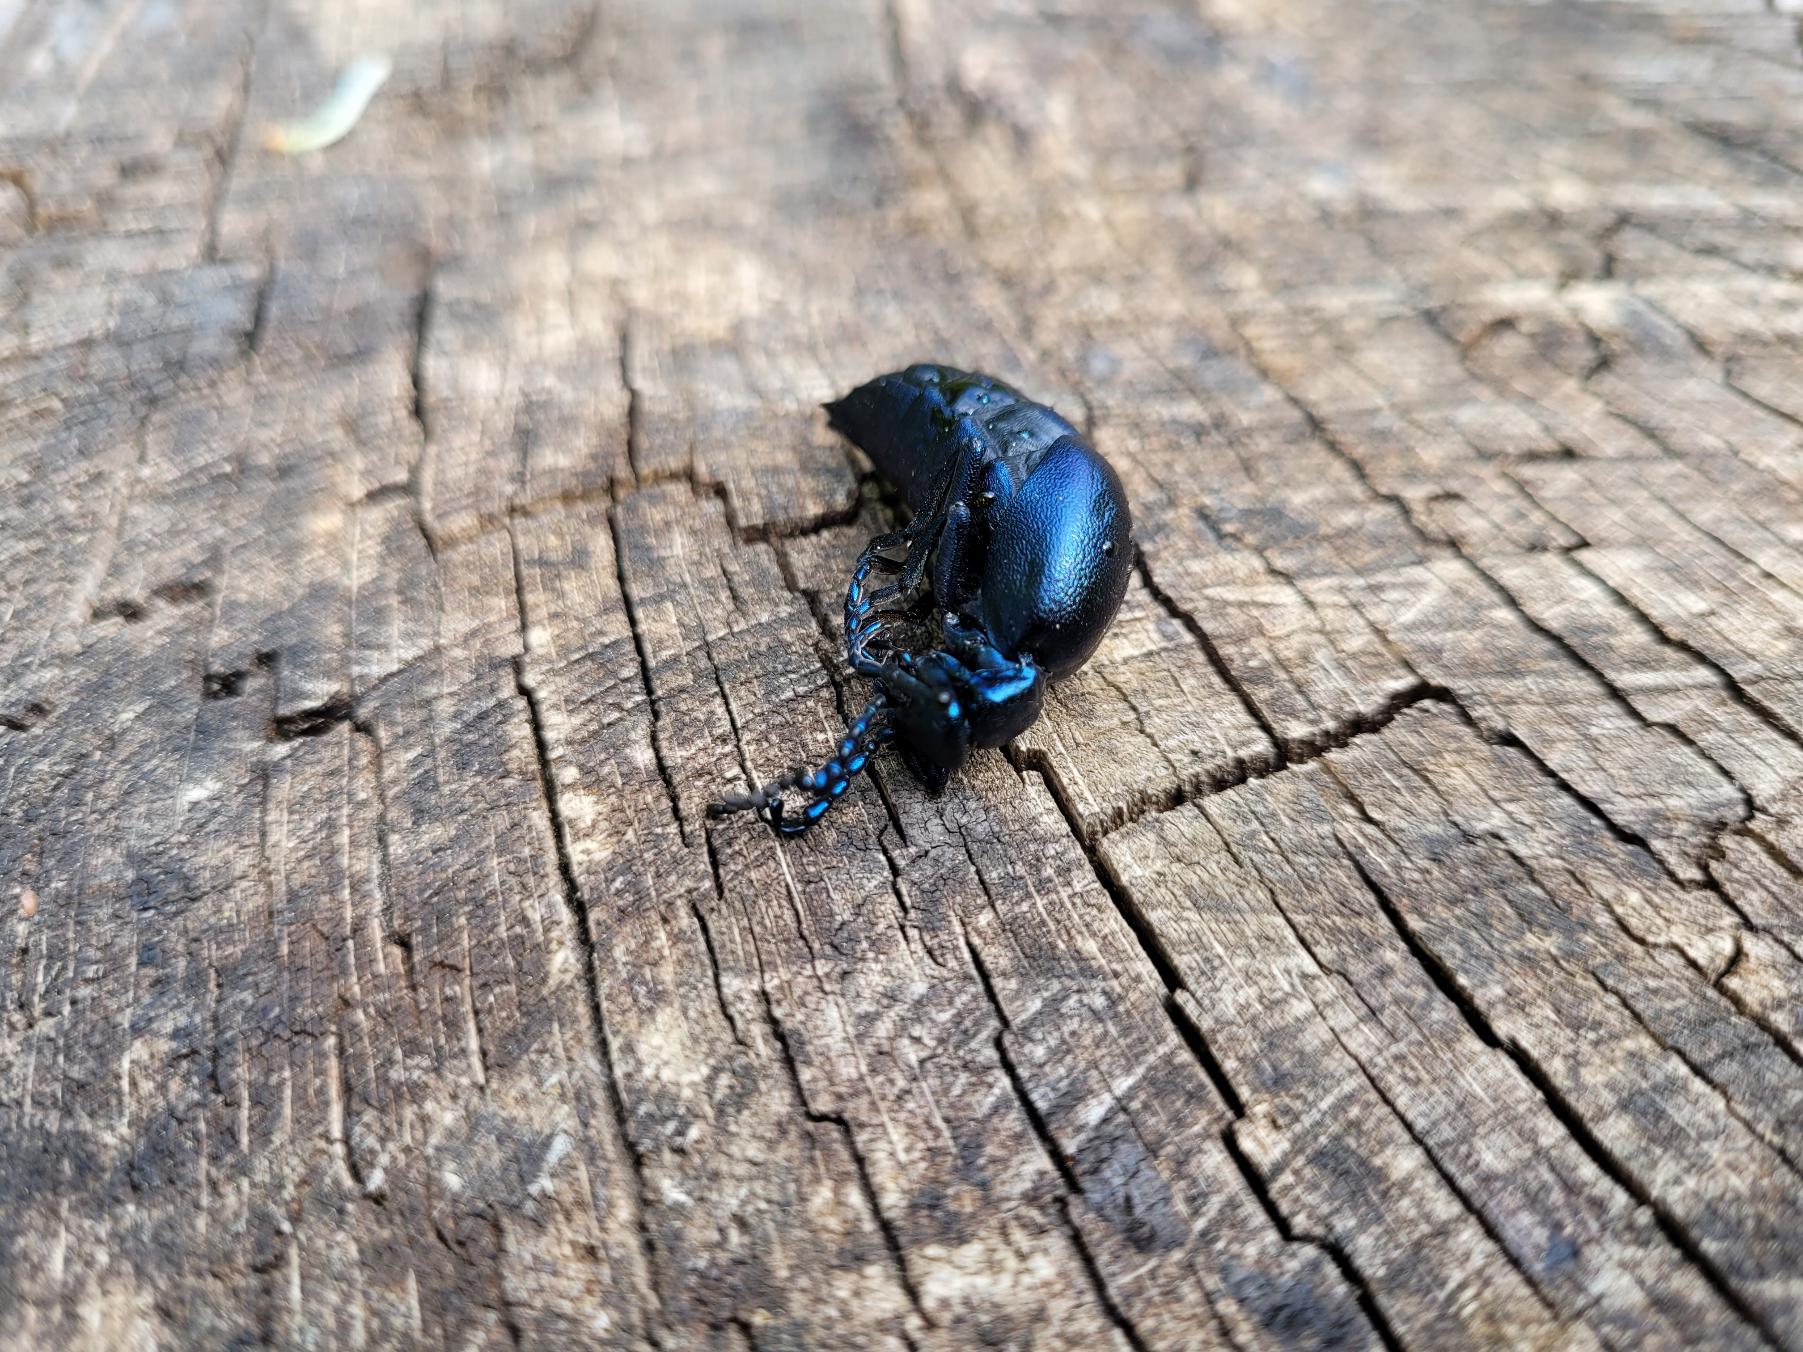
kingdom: Animalia
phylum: Arthropoda
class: Insecta
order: Coleoptera
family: Meloidae
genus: Meloe
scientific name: Meloe violaceus
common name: Blå oliebille
